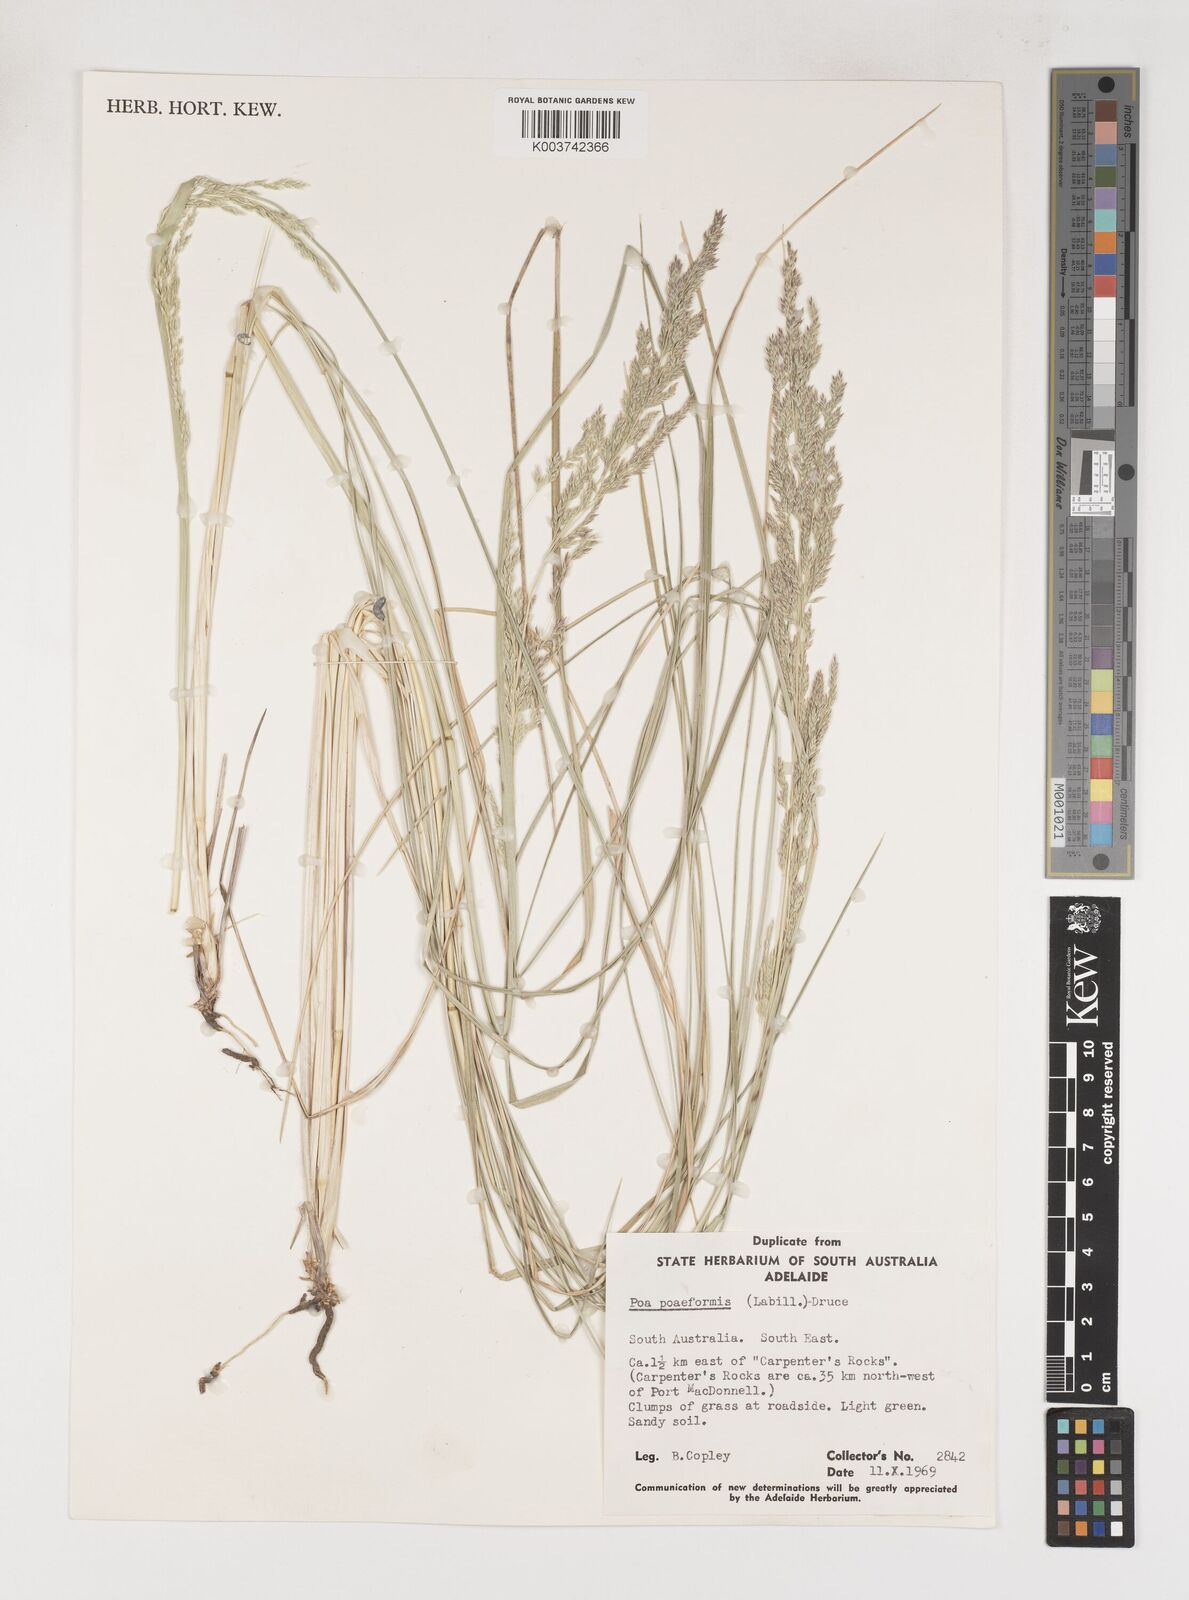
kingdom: Plantae
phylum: Tracheophyta
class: Liliopsida
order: Poales
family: Poaceae
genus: Poa
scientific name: Poa poiformis
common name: Tussock poa
